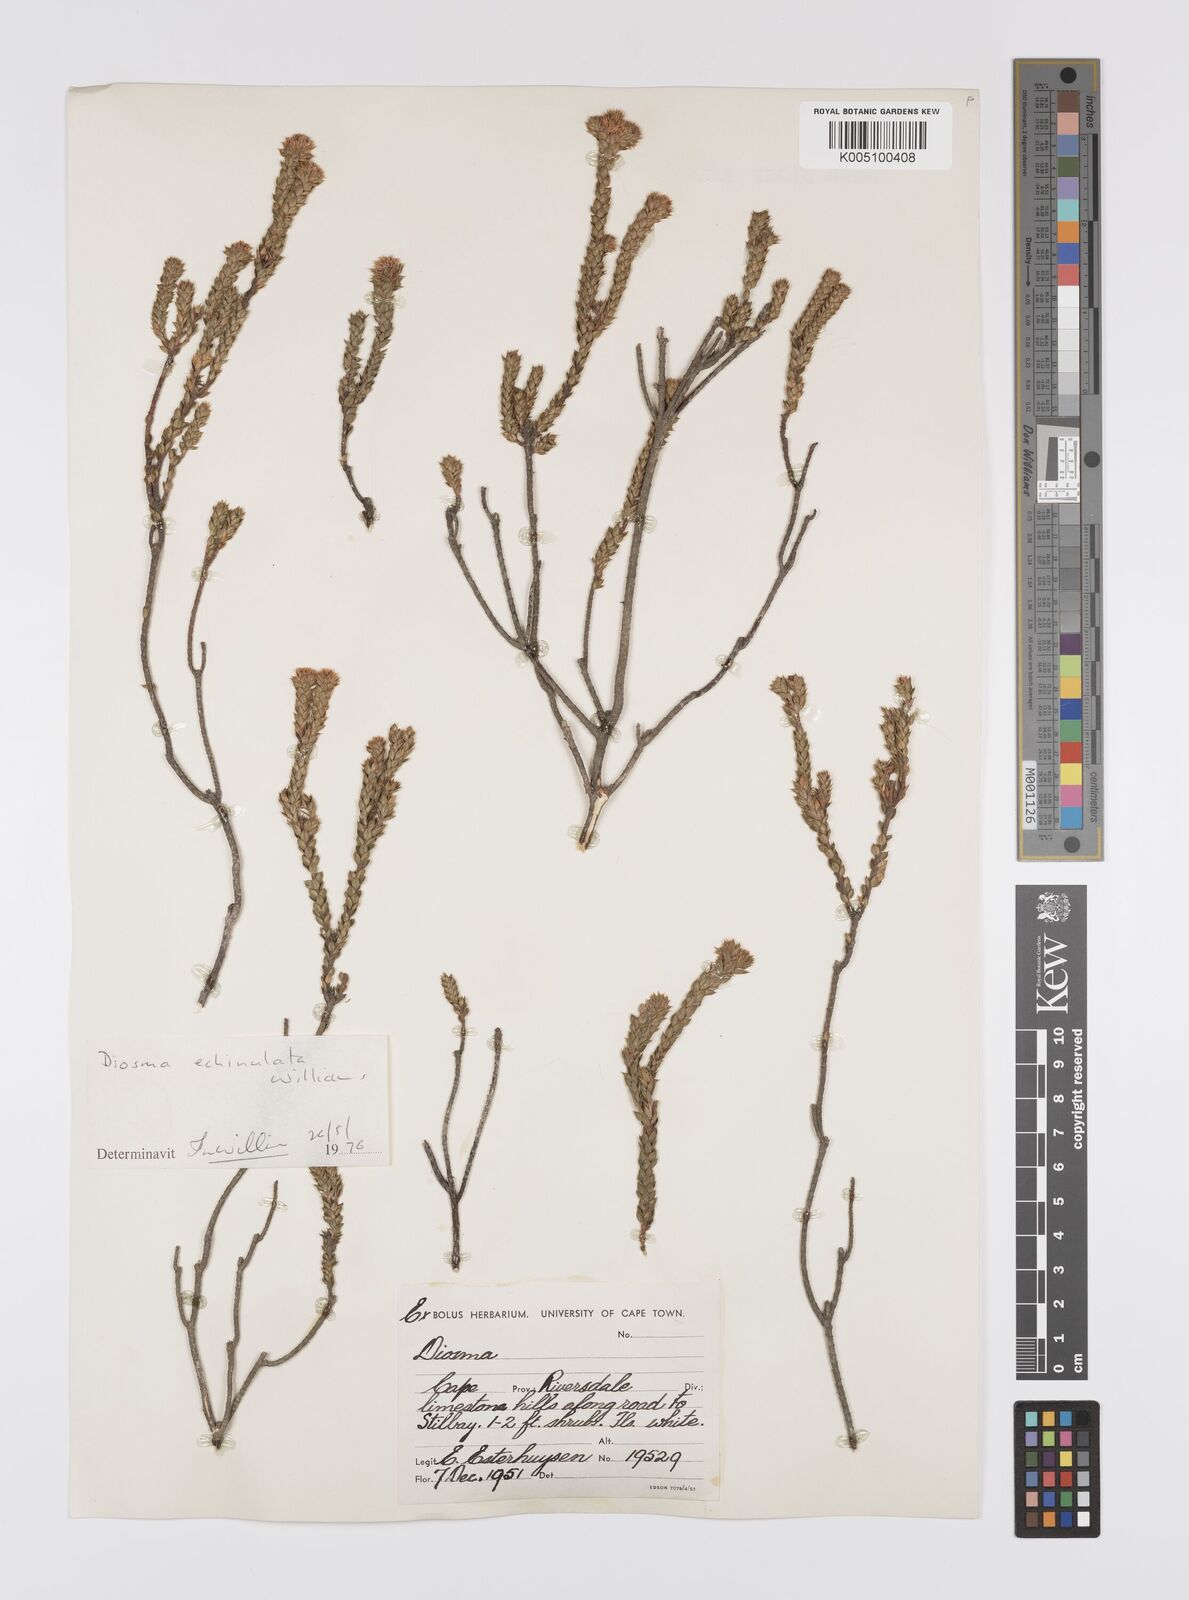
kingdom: Plantae
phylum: Tracheophyta
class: Magnoliopsida
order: Sapindales
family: Rutaceae
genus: Diosma
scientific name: Diosma echinulata
